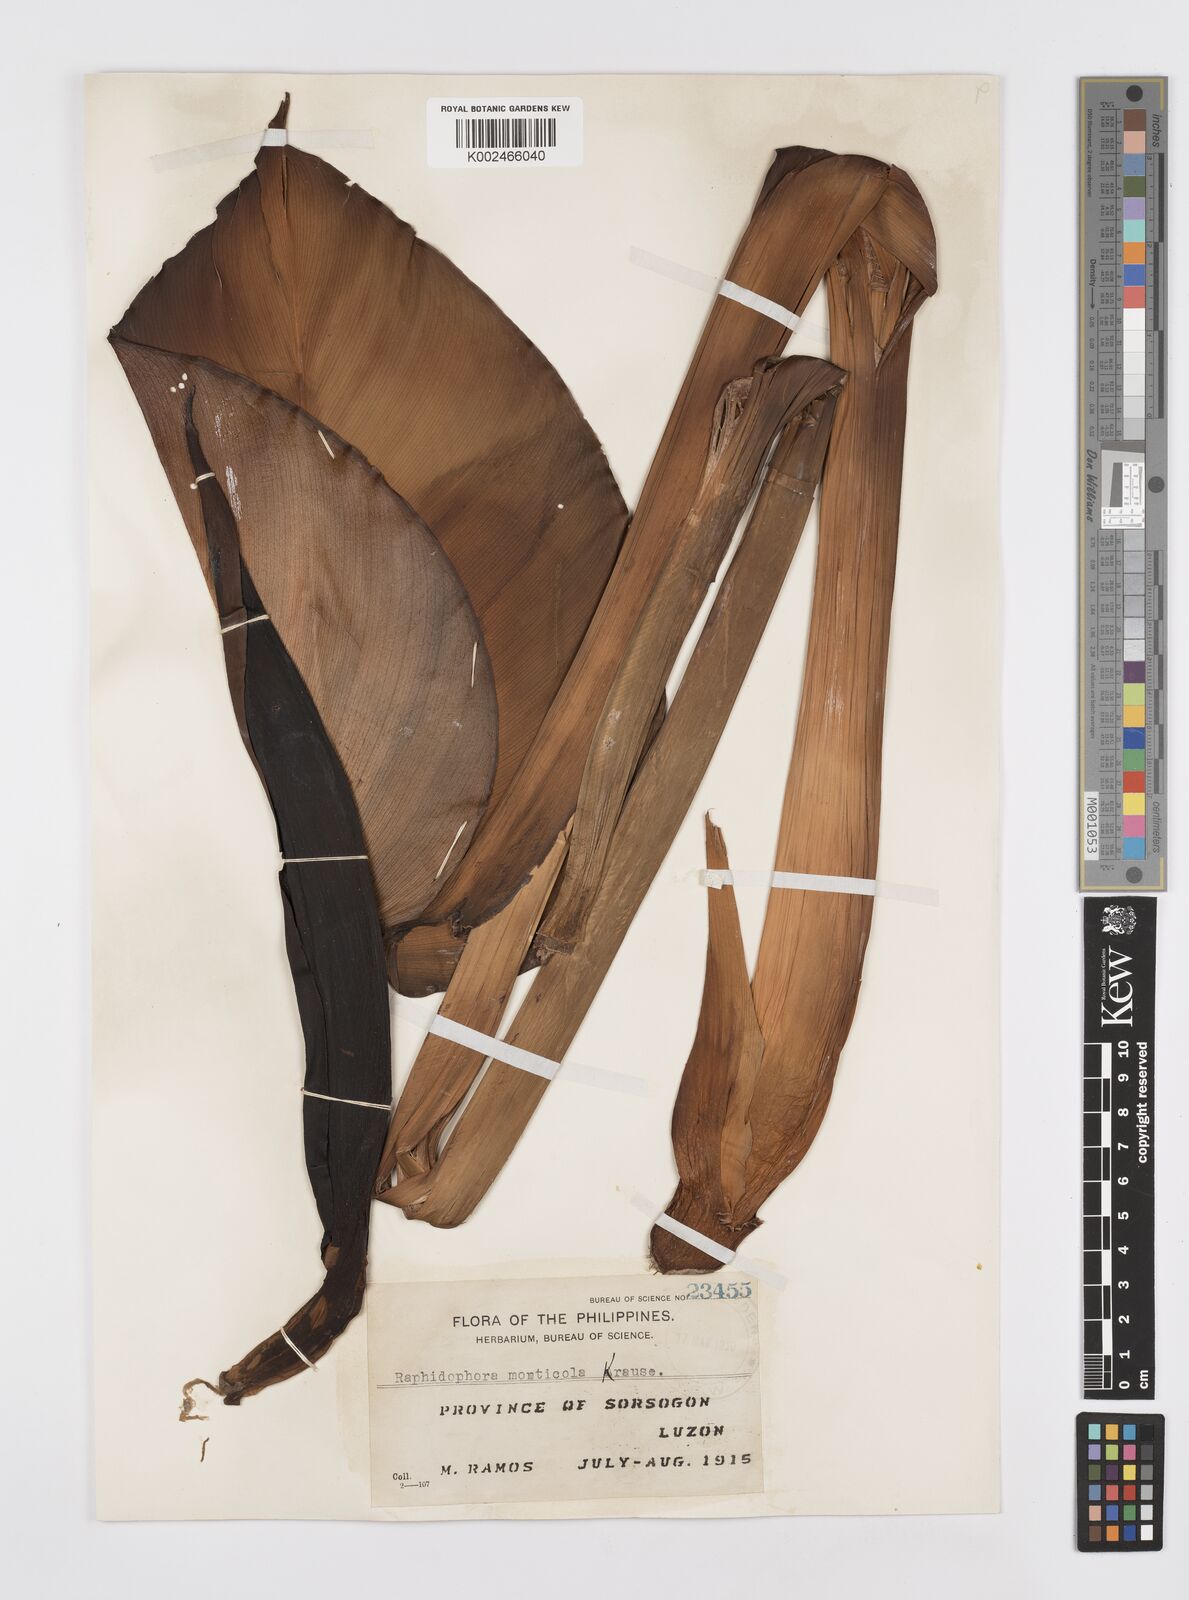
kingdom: Plantae
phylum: Tracheophyta
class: Liliopsida
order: Alismatales
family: Araceae
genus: Rhaphidophora
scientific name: Rhaphidophora monticola
